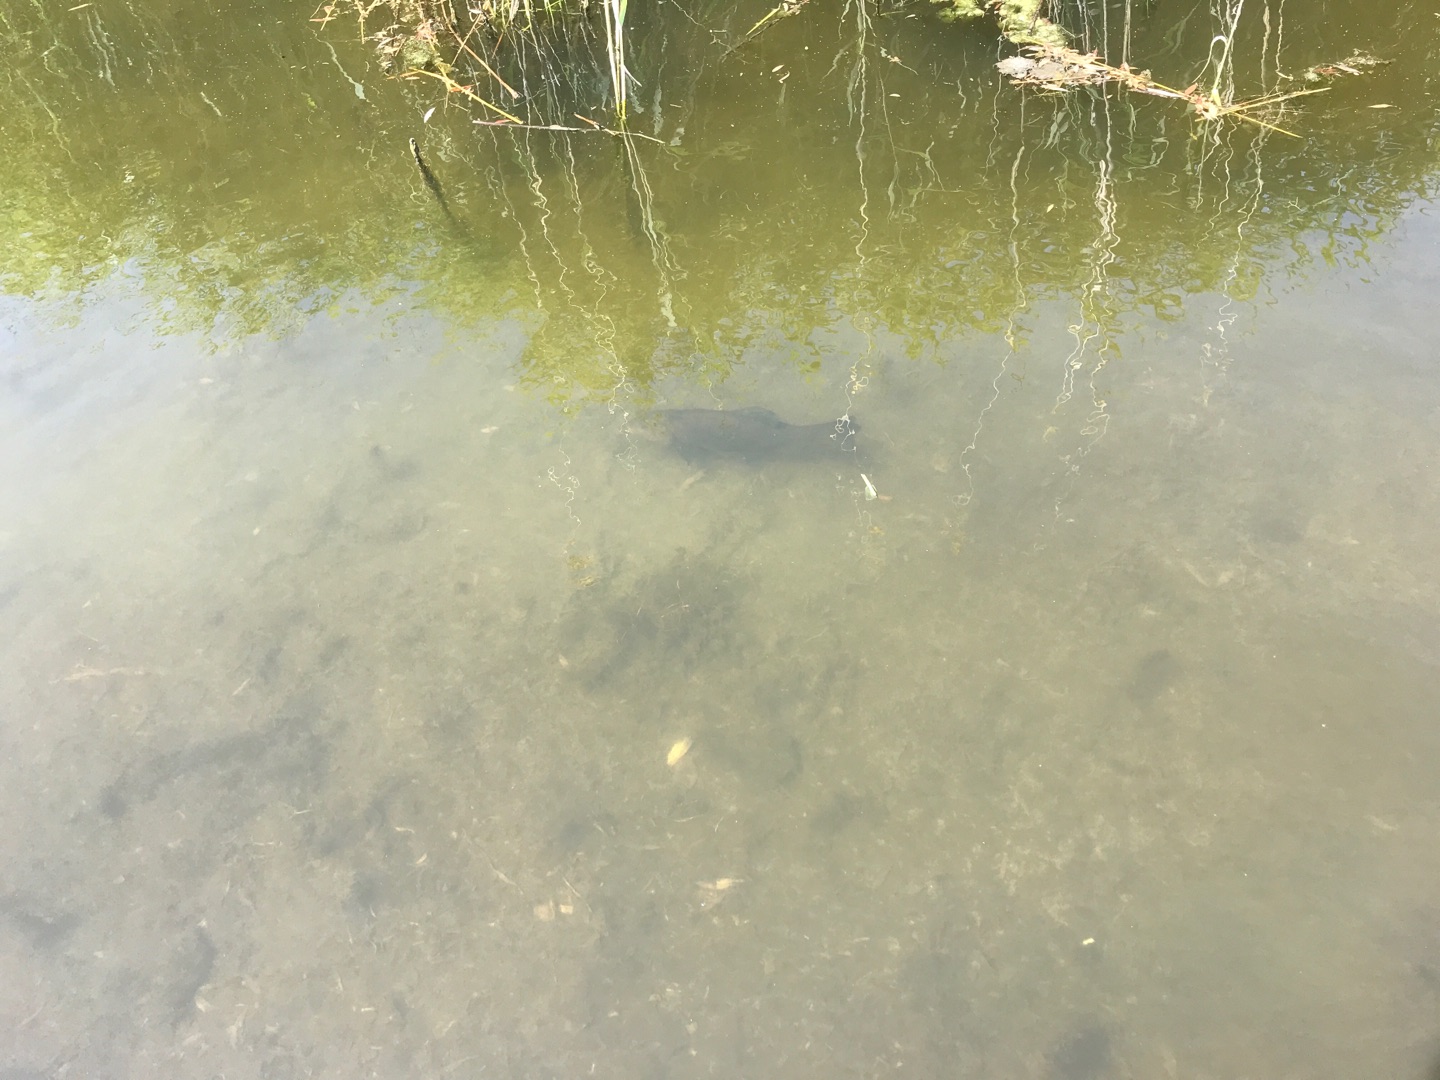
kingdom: Animalia
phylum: Chordata
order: Cypriniformes
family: Cyprinidae
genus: Tinca
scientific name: Tinca tinca
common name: Suder
